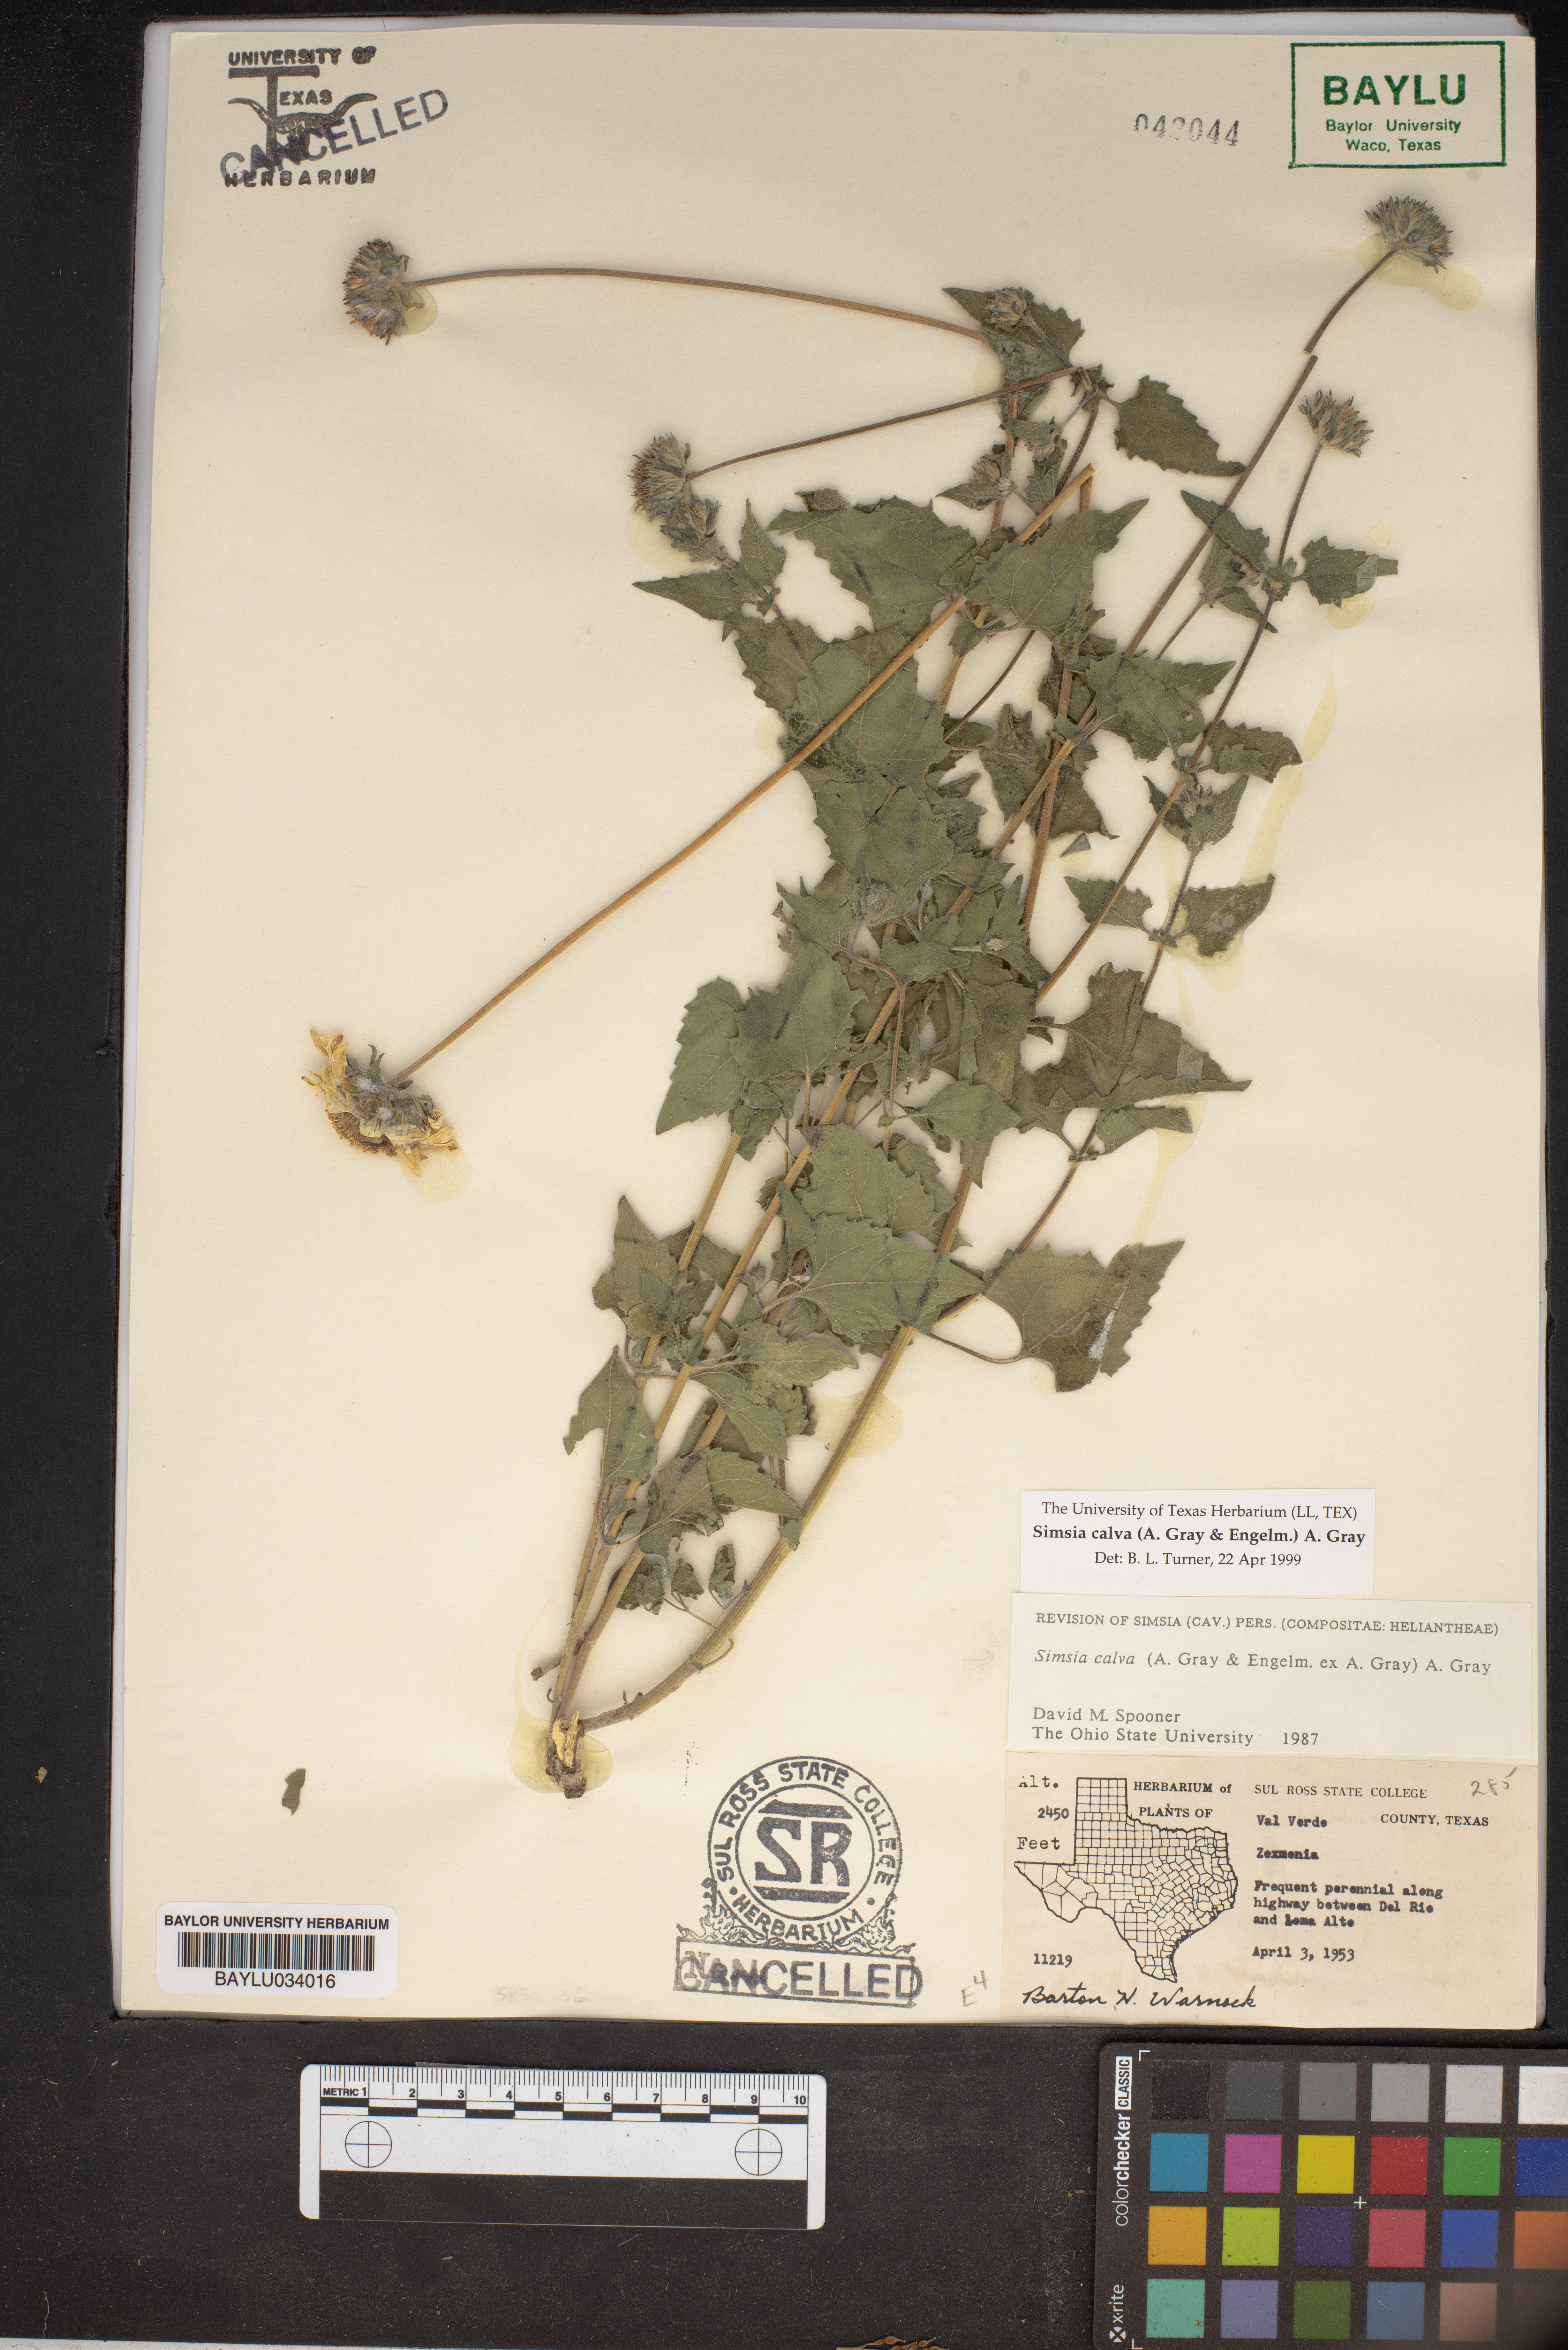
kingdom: Plantae
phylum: Tracheophyta
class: Magnoliopsida
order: Asterales
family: Asteraceae
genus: Simsia
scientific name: Simsia calva
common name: Awnless bush-sunflower
